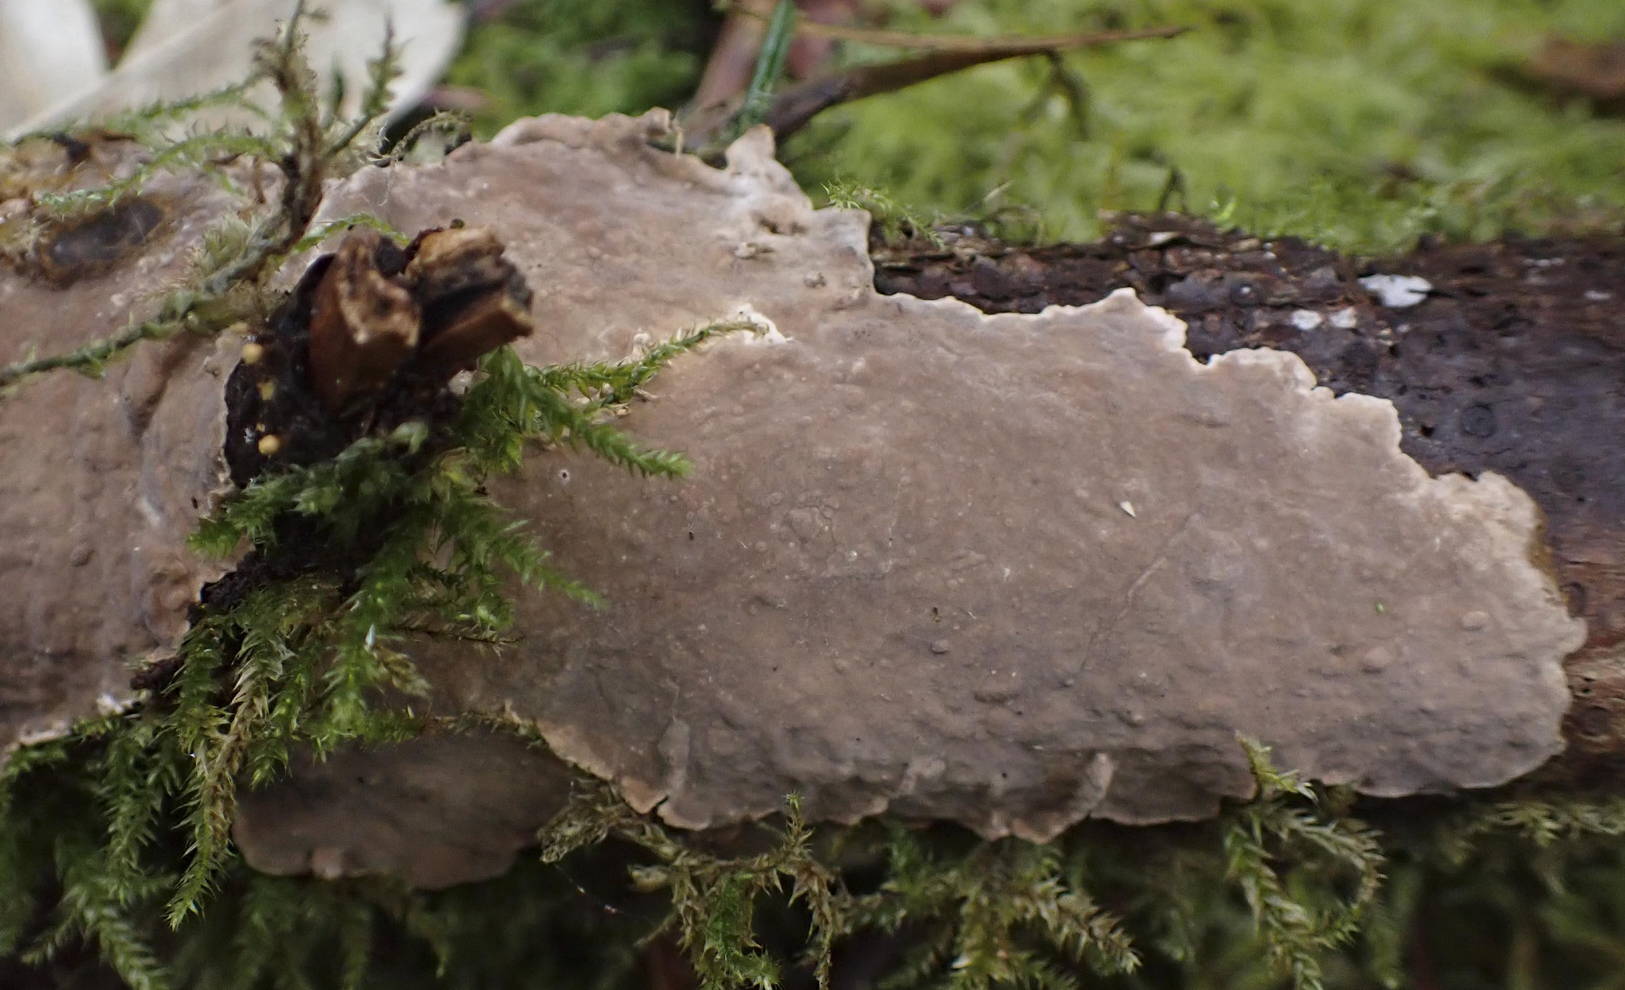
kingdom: Fungi
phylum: Basidiomycota
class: Agaricomycetes
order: Russulales
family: Echinodontiaceae
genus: Amylostereum
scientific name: Amylostereum chailletii
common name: gran-lædersvamp
